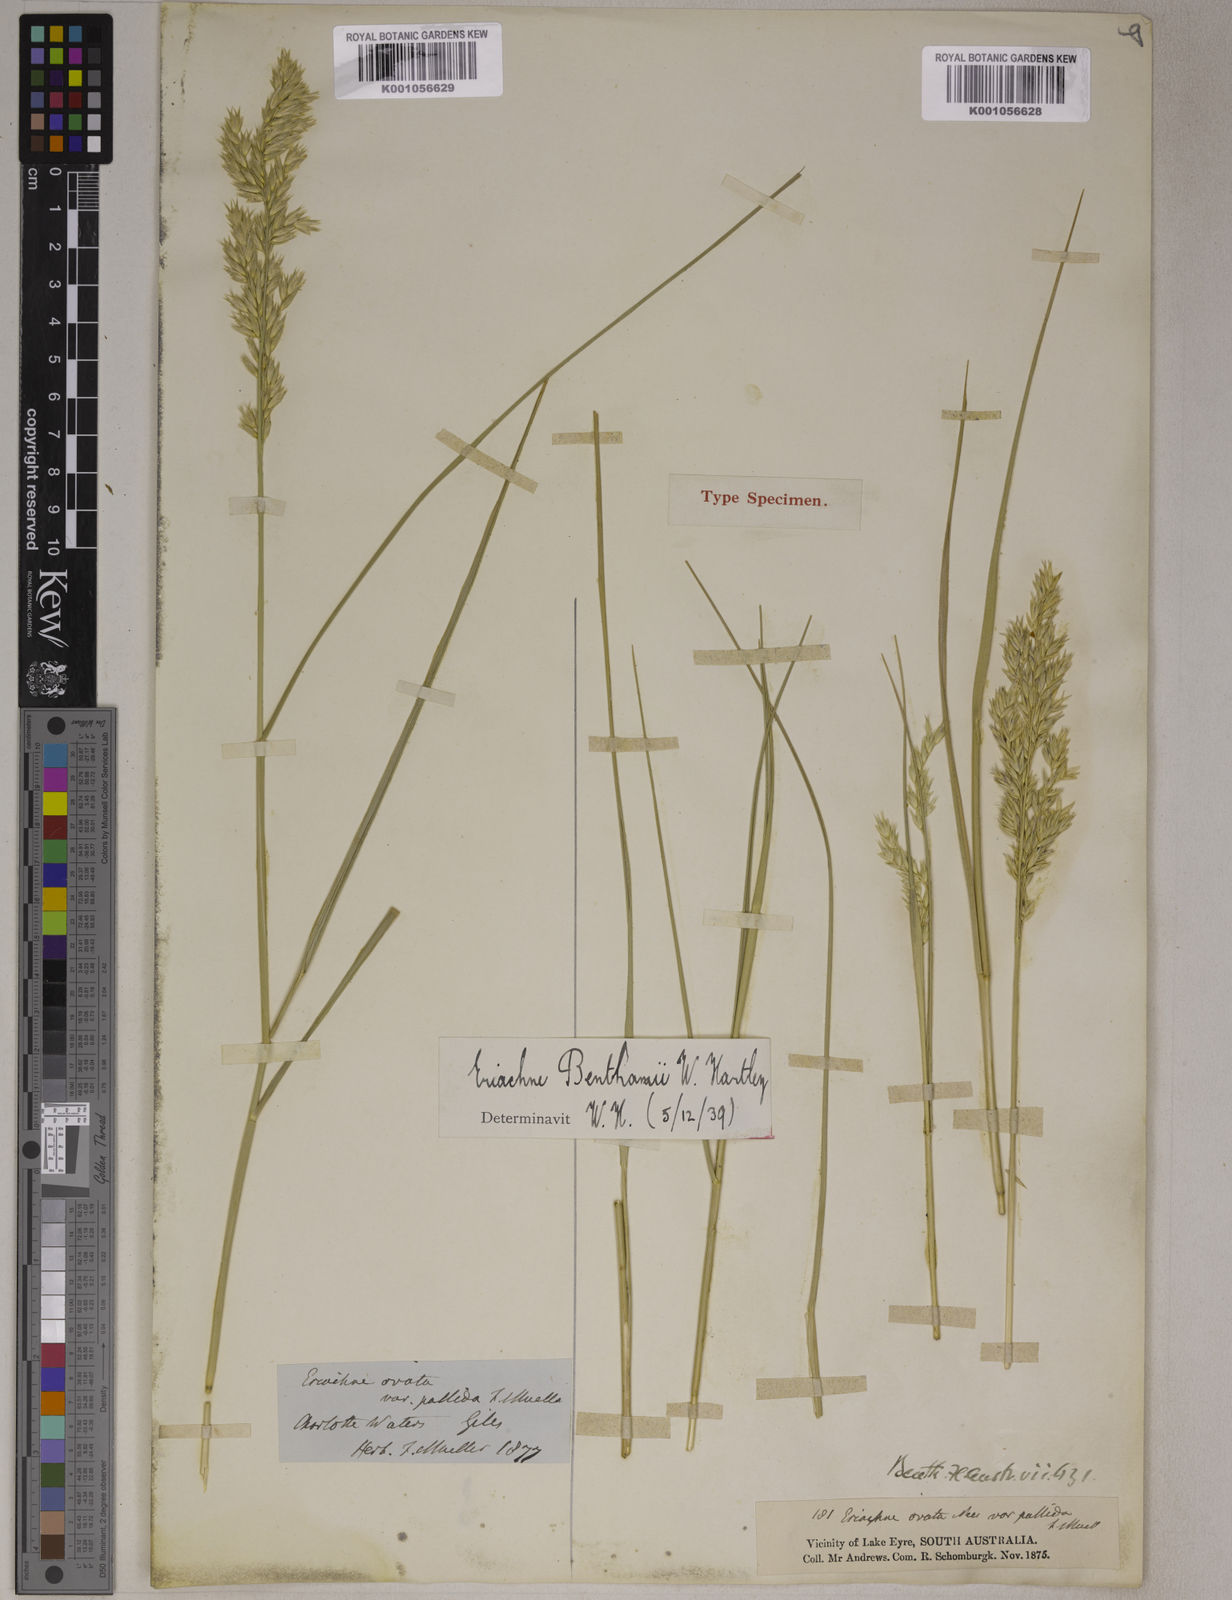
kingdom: Plantae
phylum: Tracheophyta
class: Liliopsida
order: Poales
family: Poaceae
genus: Eriachne
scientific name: Eriachne benthamii
